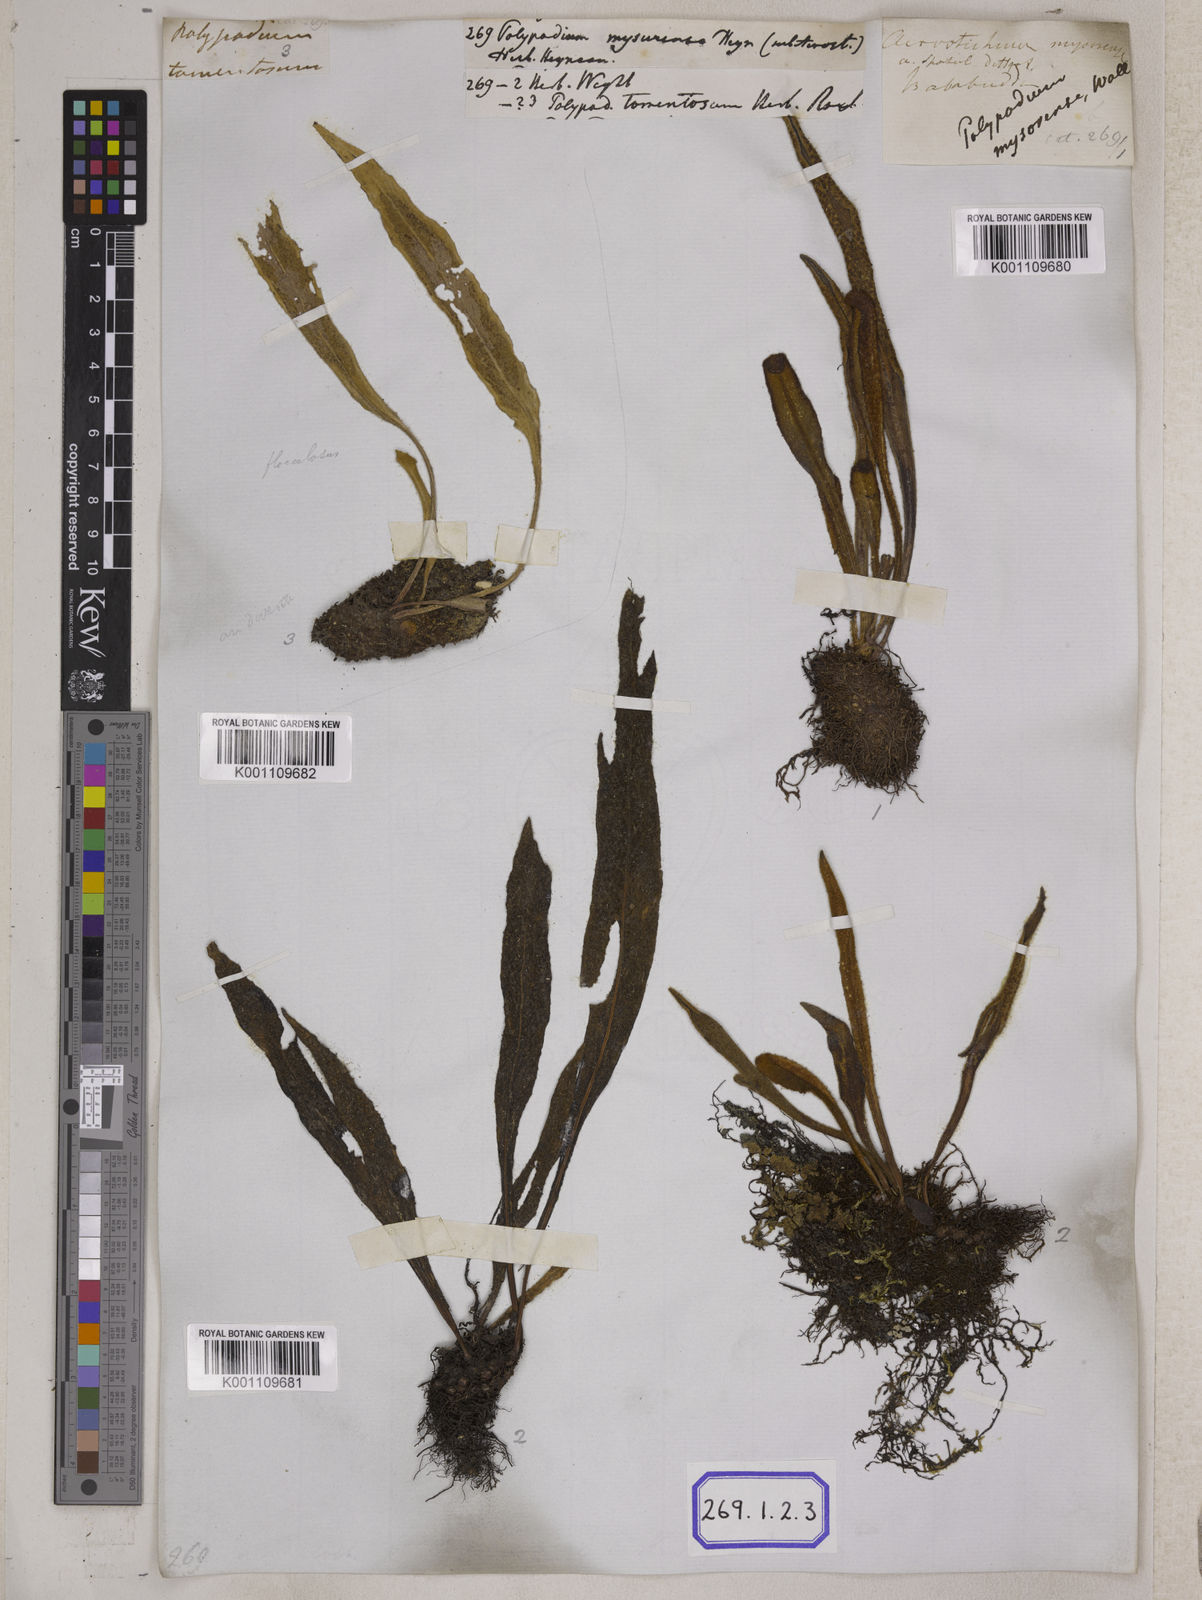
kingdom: Plantae
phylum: Tracheophyta
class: Polypodiopsida
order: Polypodiales
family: Polypodiaceae
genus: Polypodium
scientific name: Polypodium
